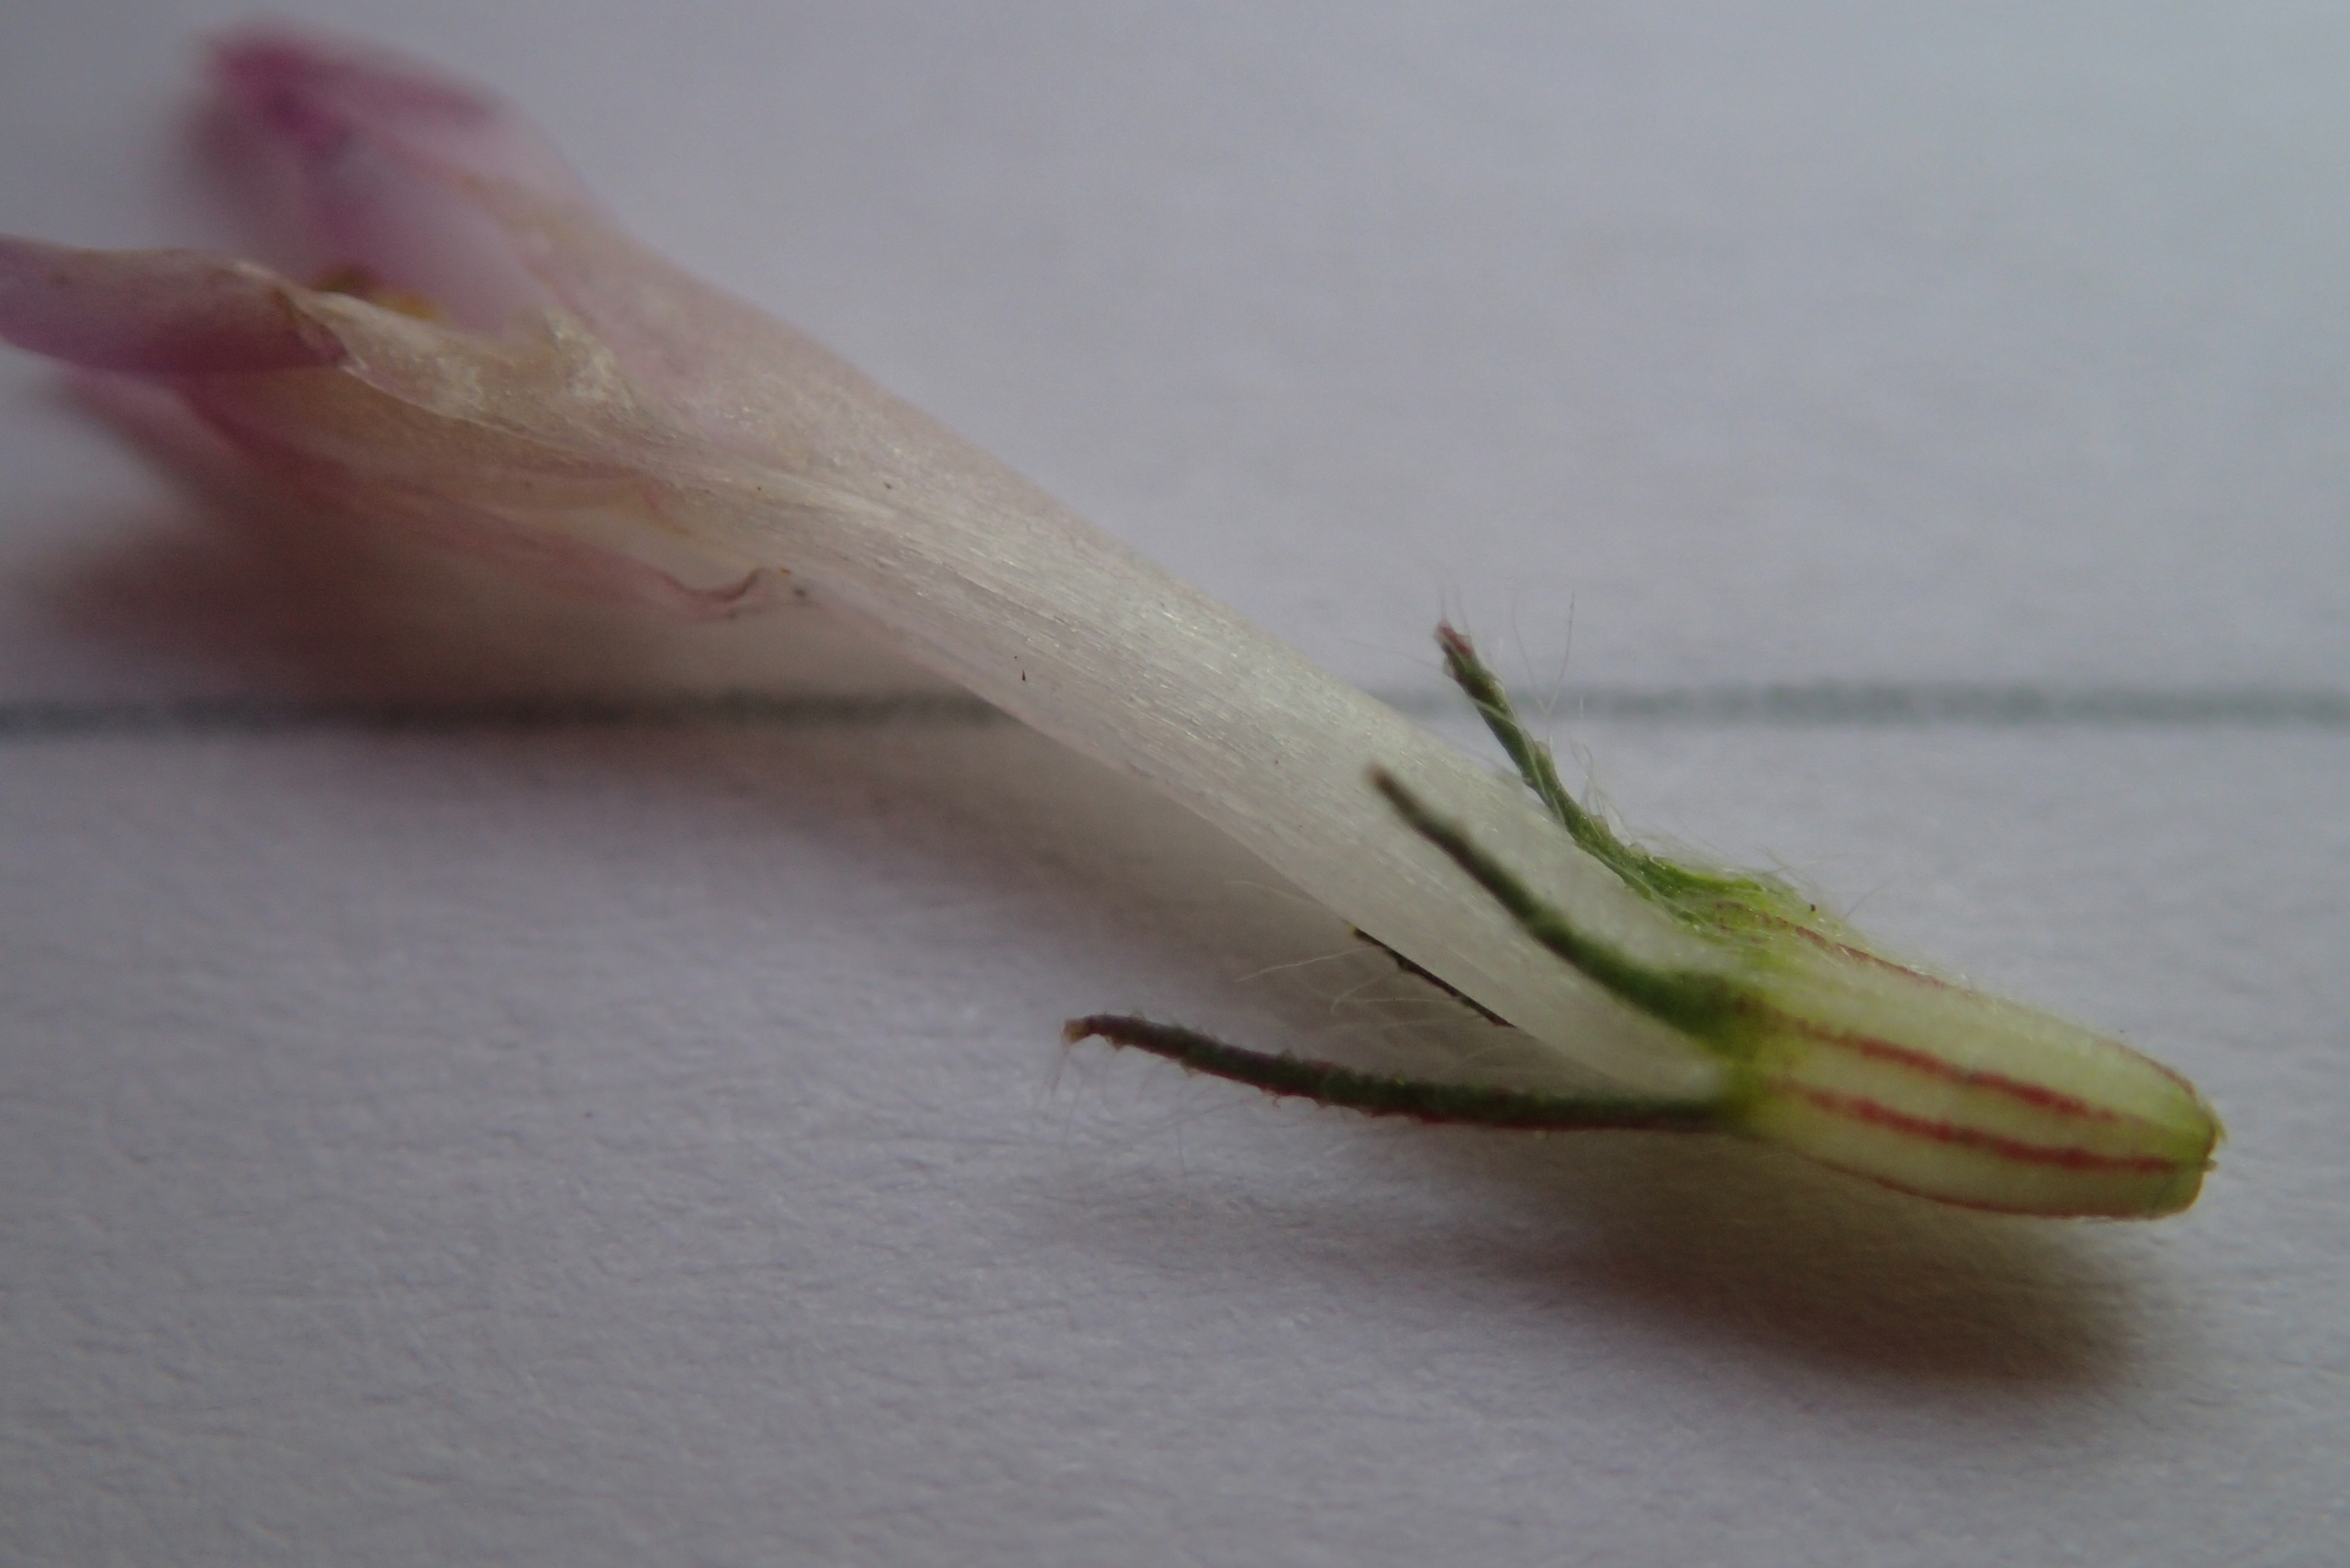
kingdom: Plantae
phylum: Tracheophyta
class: Magnoliopsida
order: Fabales
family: Fabaceae
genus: Trifolium
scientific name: Trifolium pratense
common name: Rød-kløver
